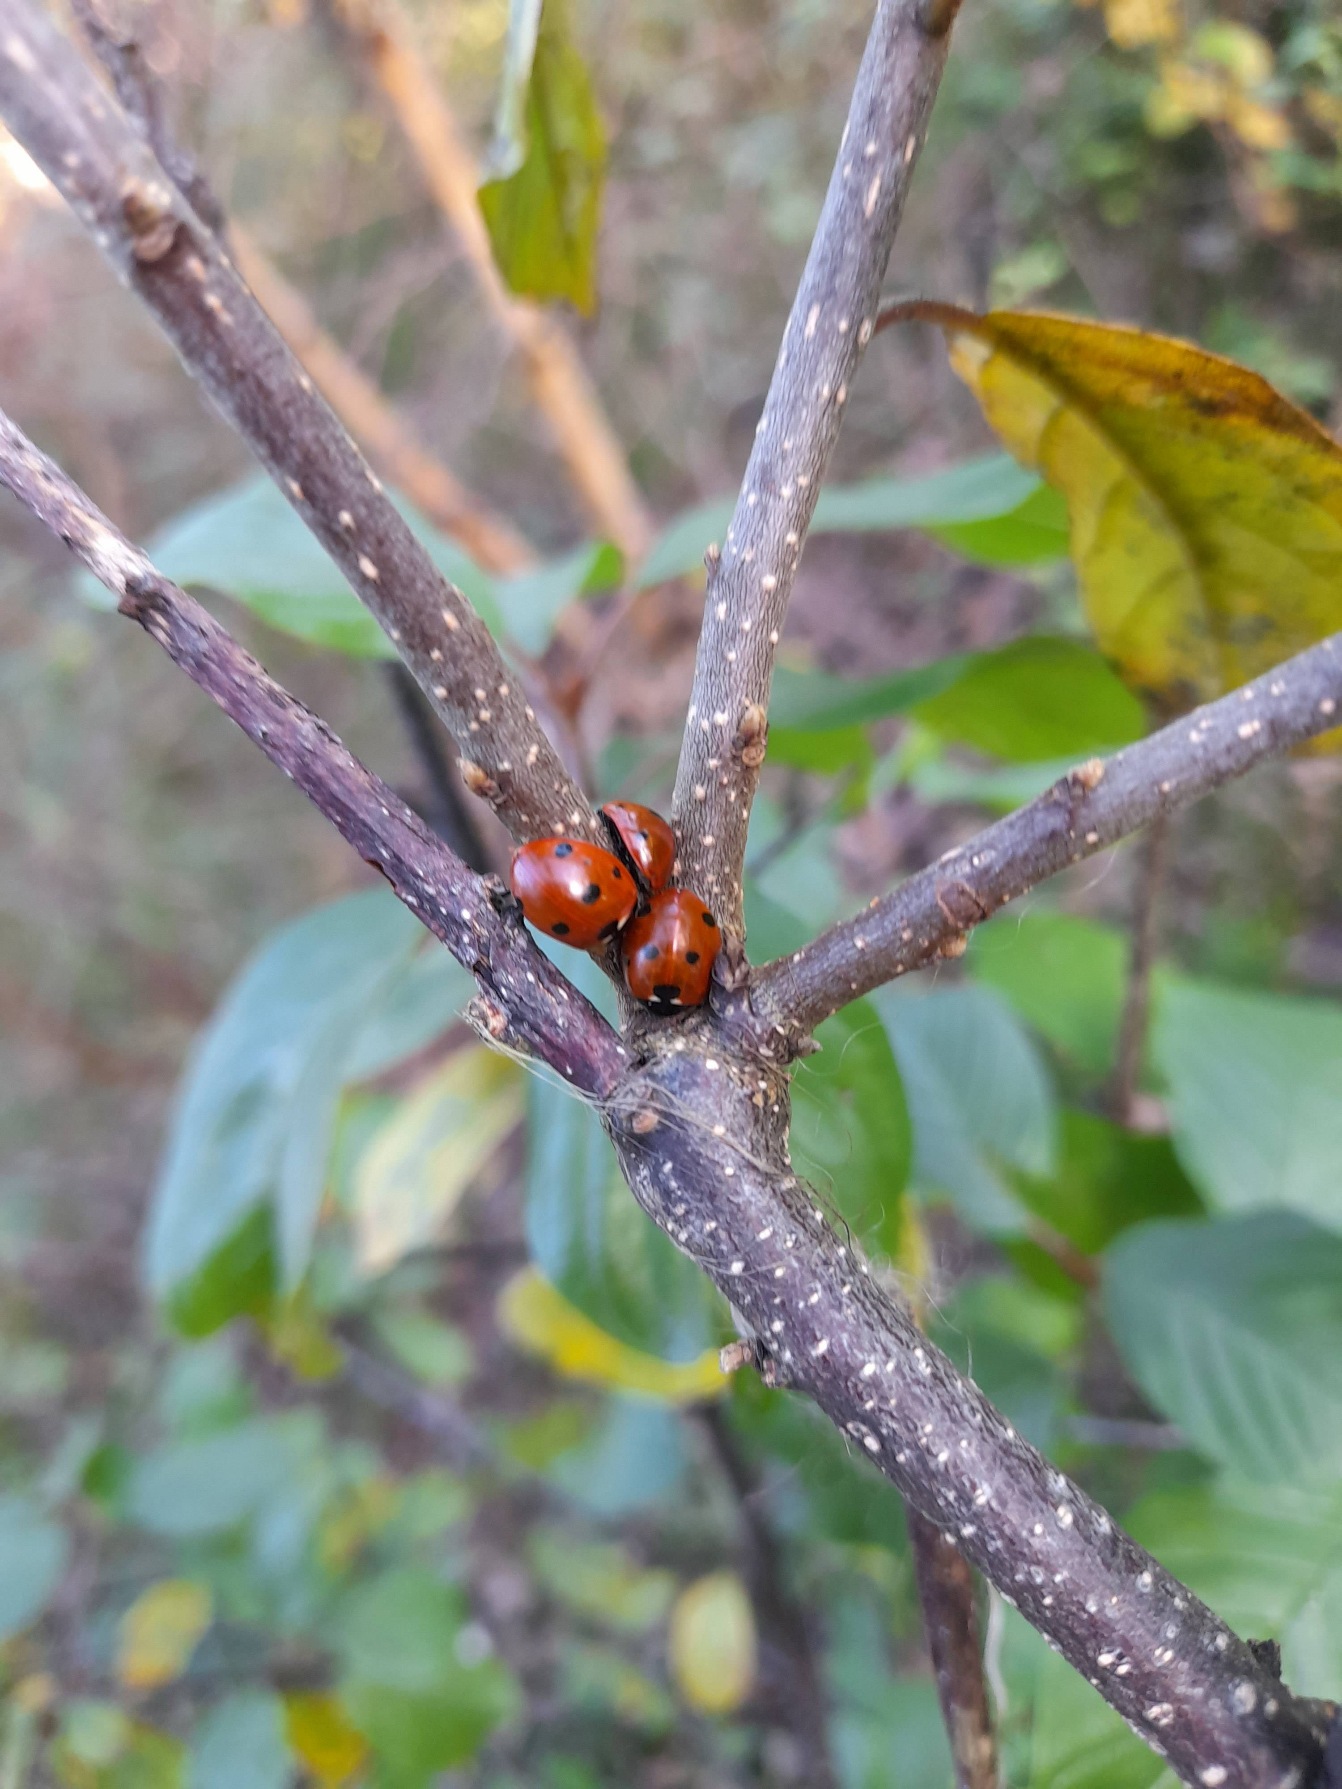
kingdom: Animalia
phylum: Arthropoda
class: Insecta
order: Coleoptera
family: Coccinellidae
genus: Coccinella
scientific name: Coccinella septempunctata
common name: Syvplettet mariehøne
